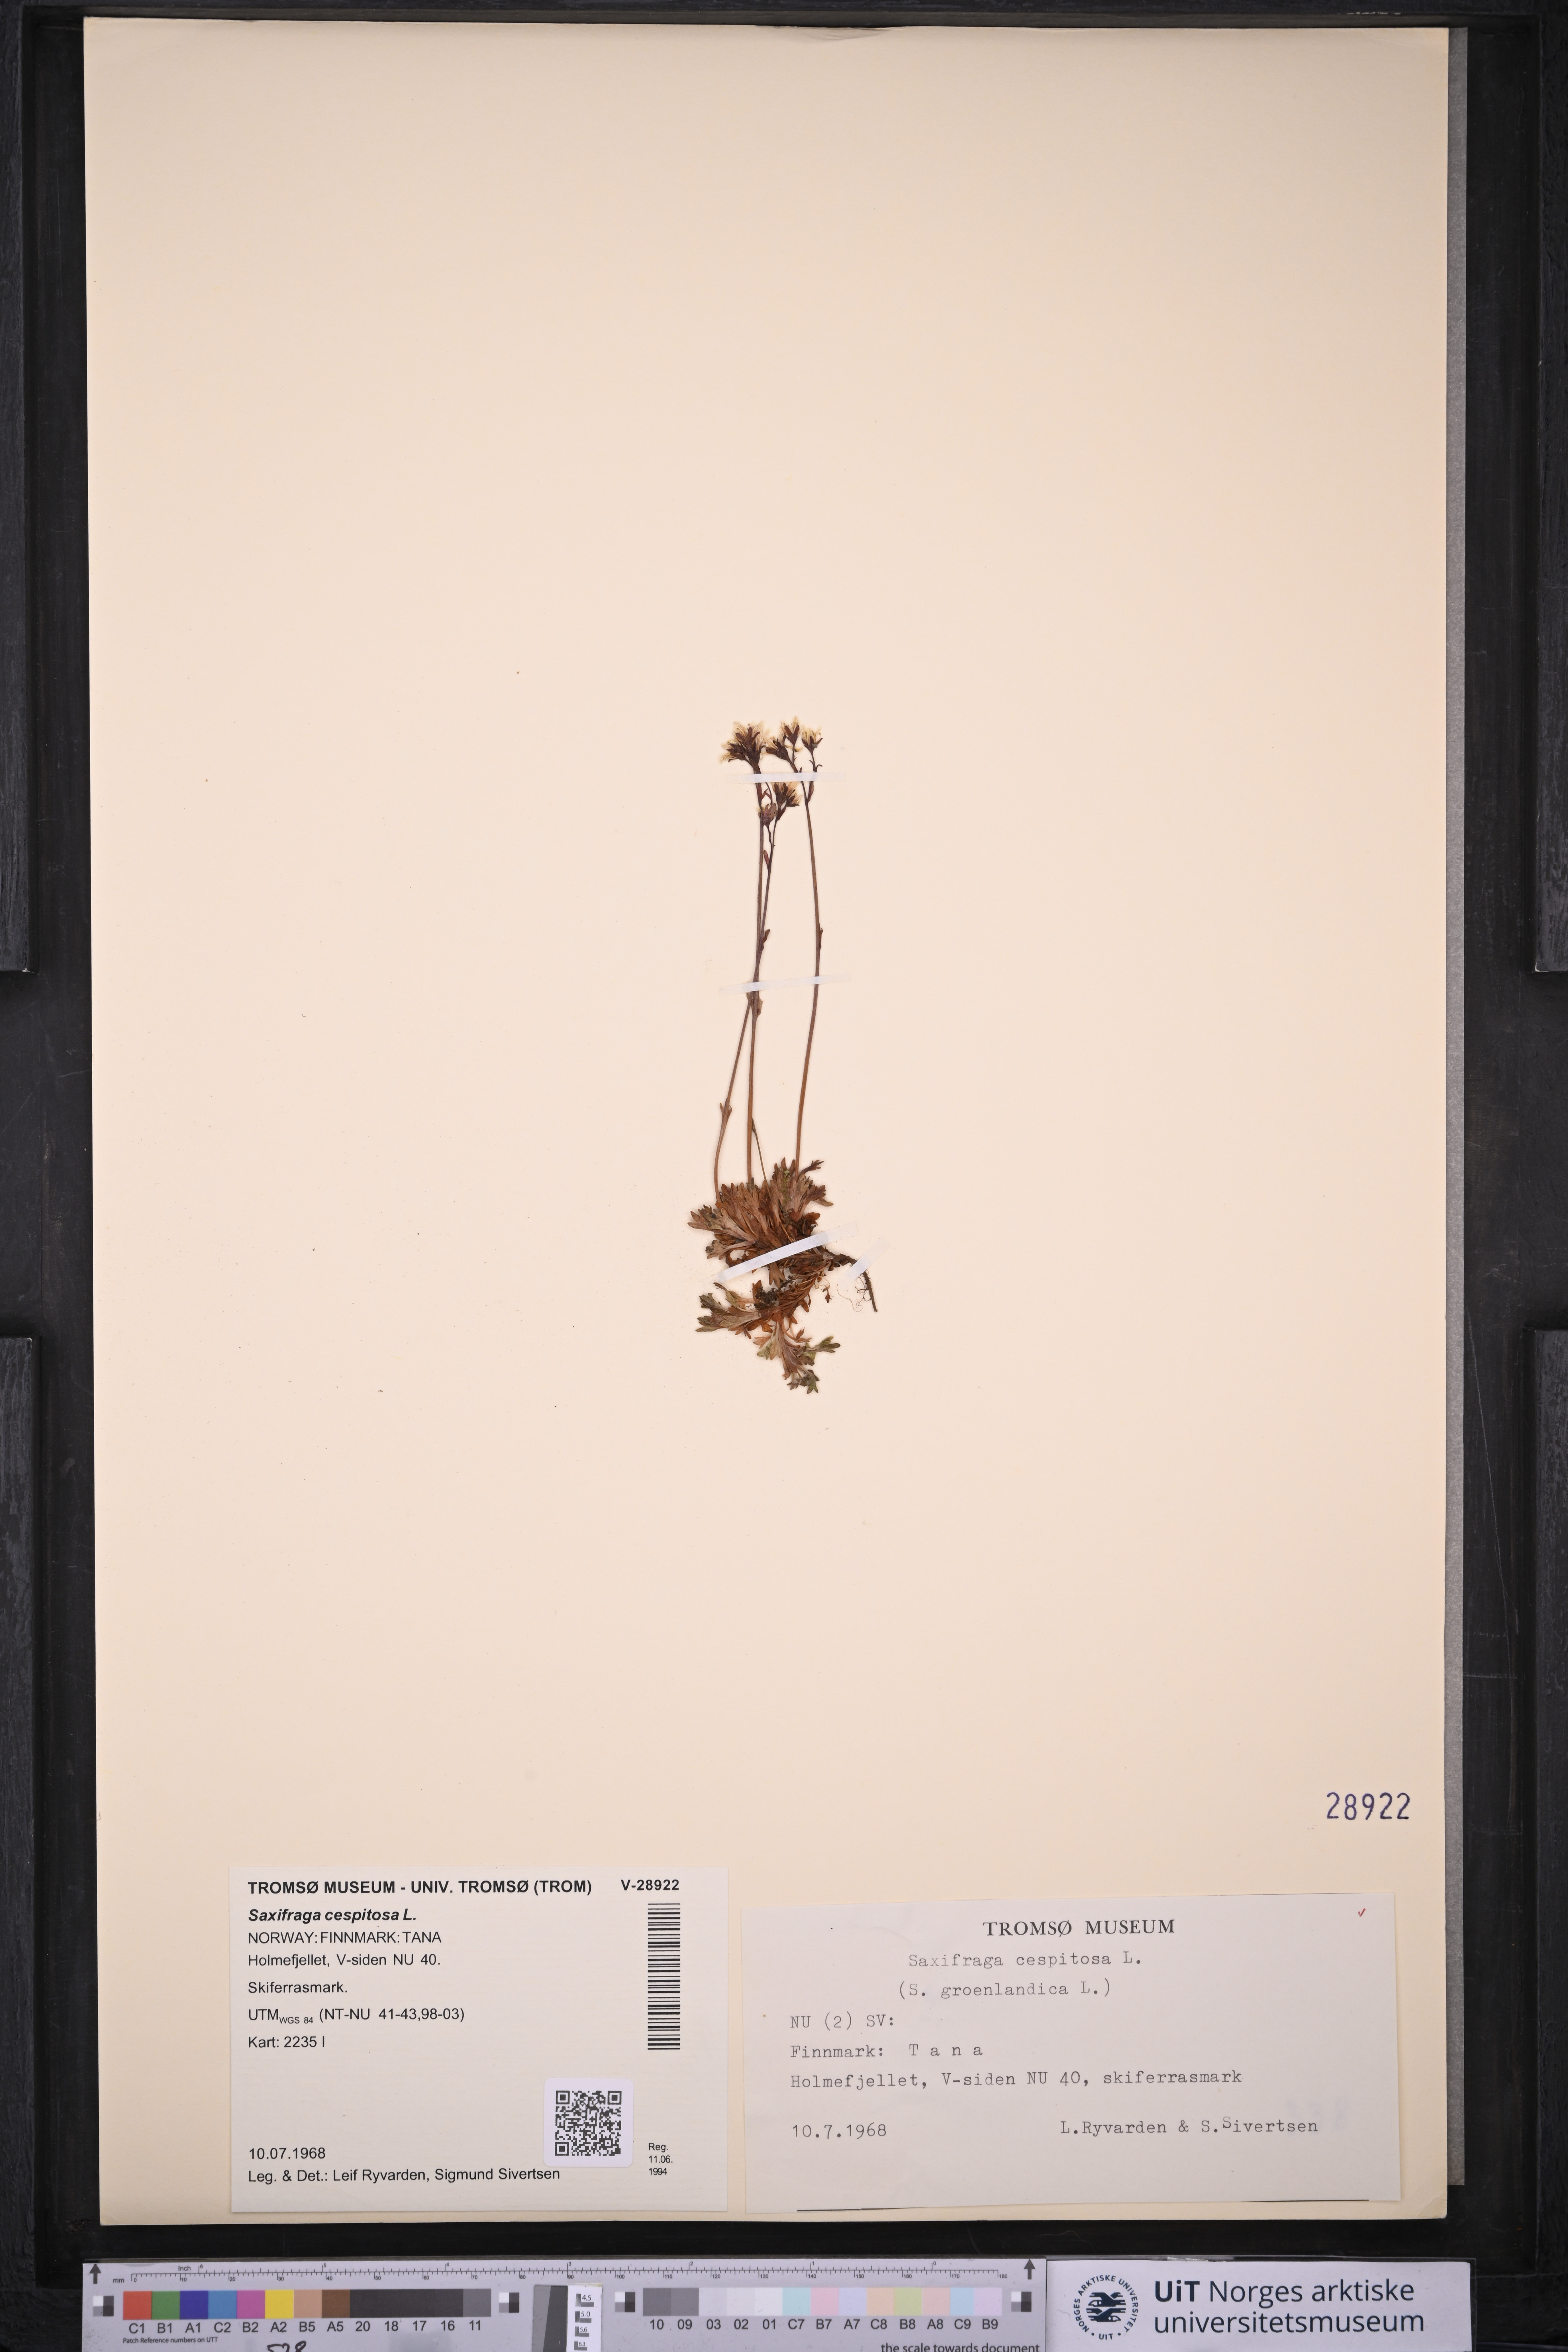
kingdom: Plantae
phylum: Tracheophyta
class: Magnoliopsida
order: Saxifragales
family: Saxifragaceae
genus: Saxifraga
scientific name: Saxifraga cespitosa
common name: Tufted saxifrage
